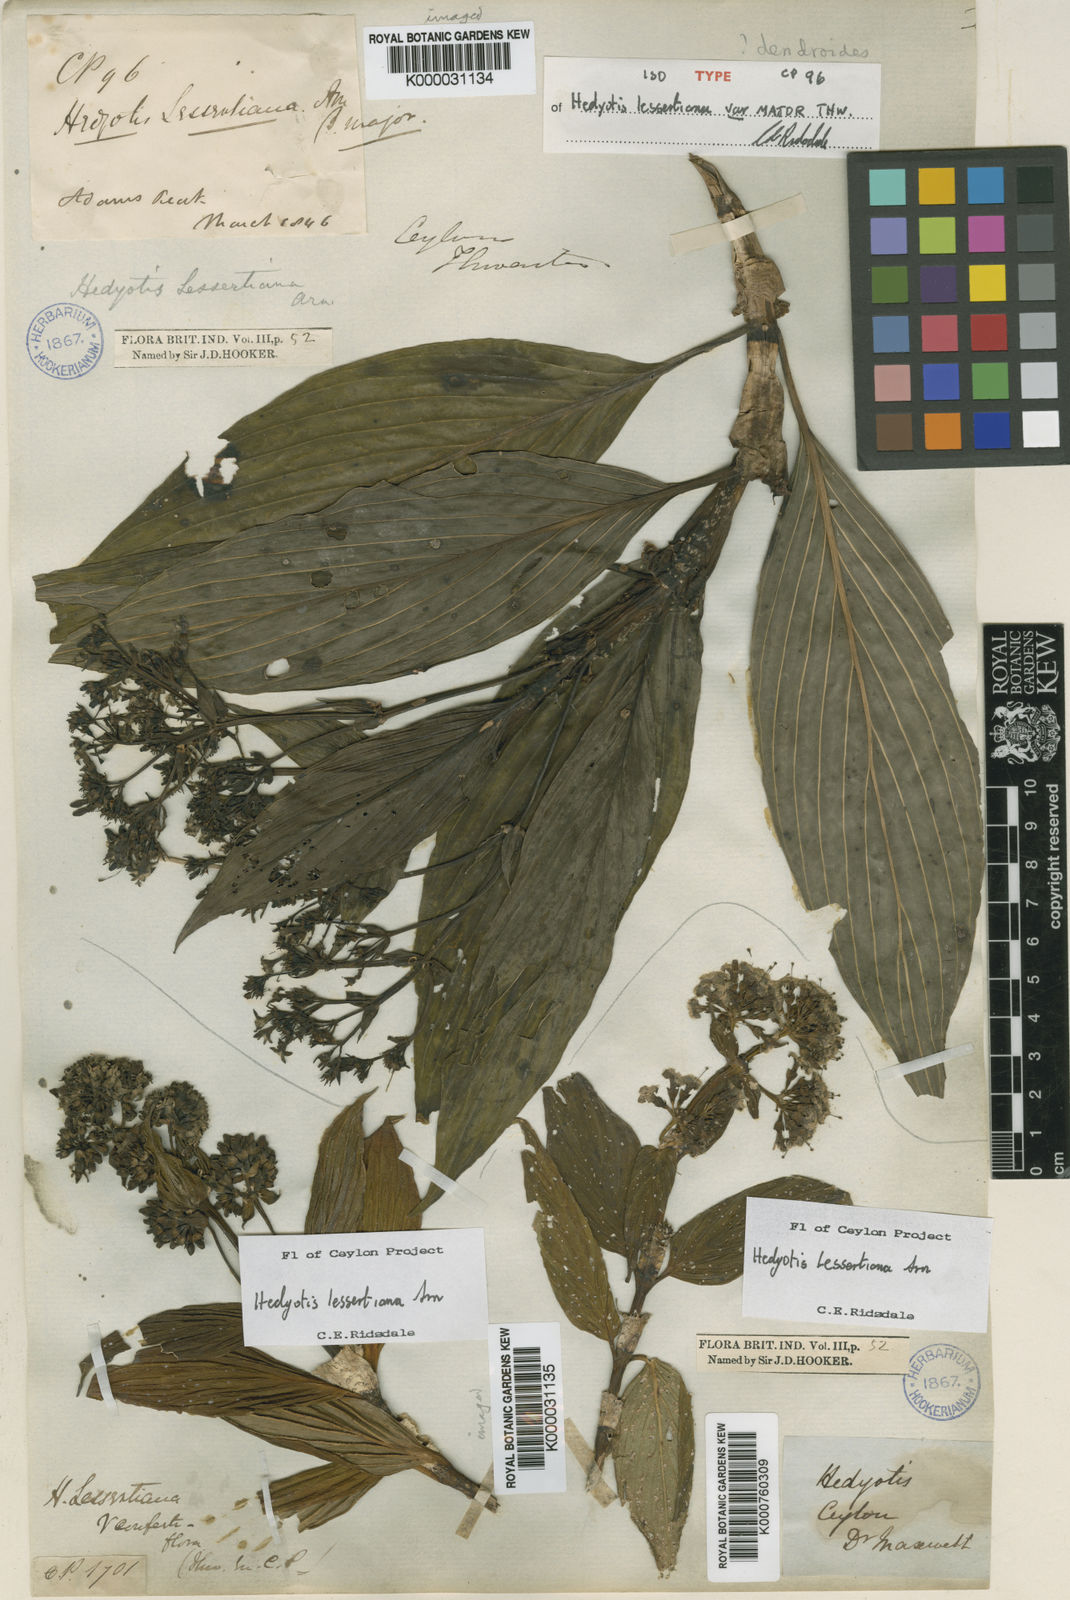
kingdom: Plantae
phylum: Tracheophyta
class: Magnoliopsida
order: Gentianales
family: Rubiaceae
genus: Hedyotis
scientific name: Hedyotis lessertiana
